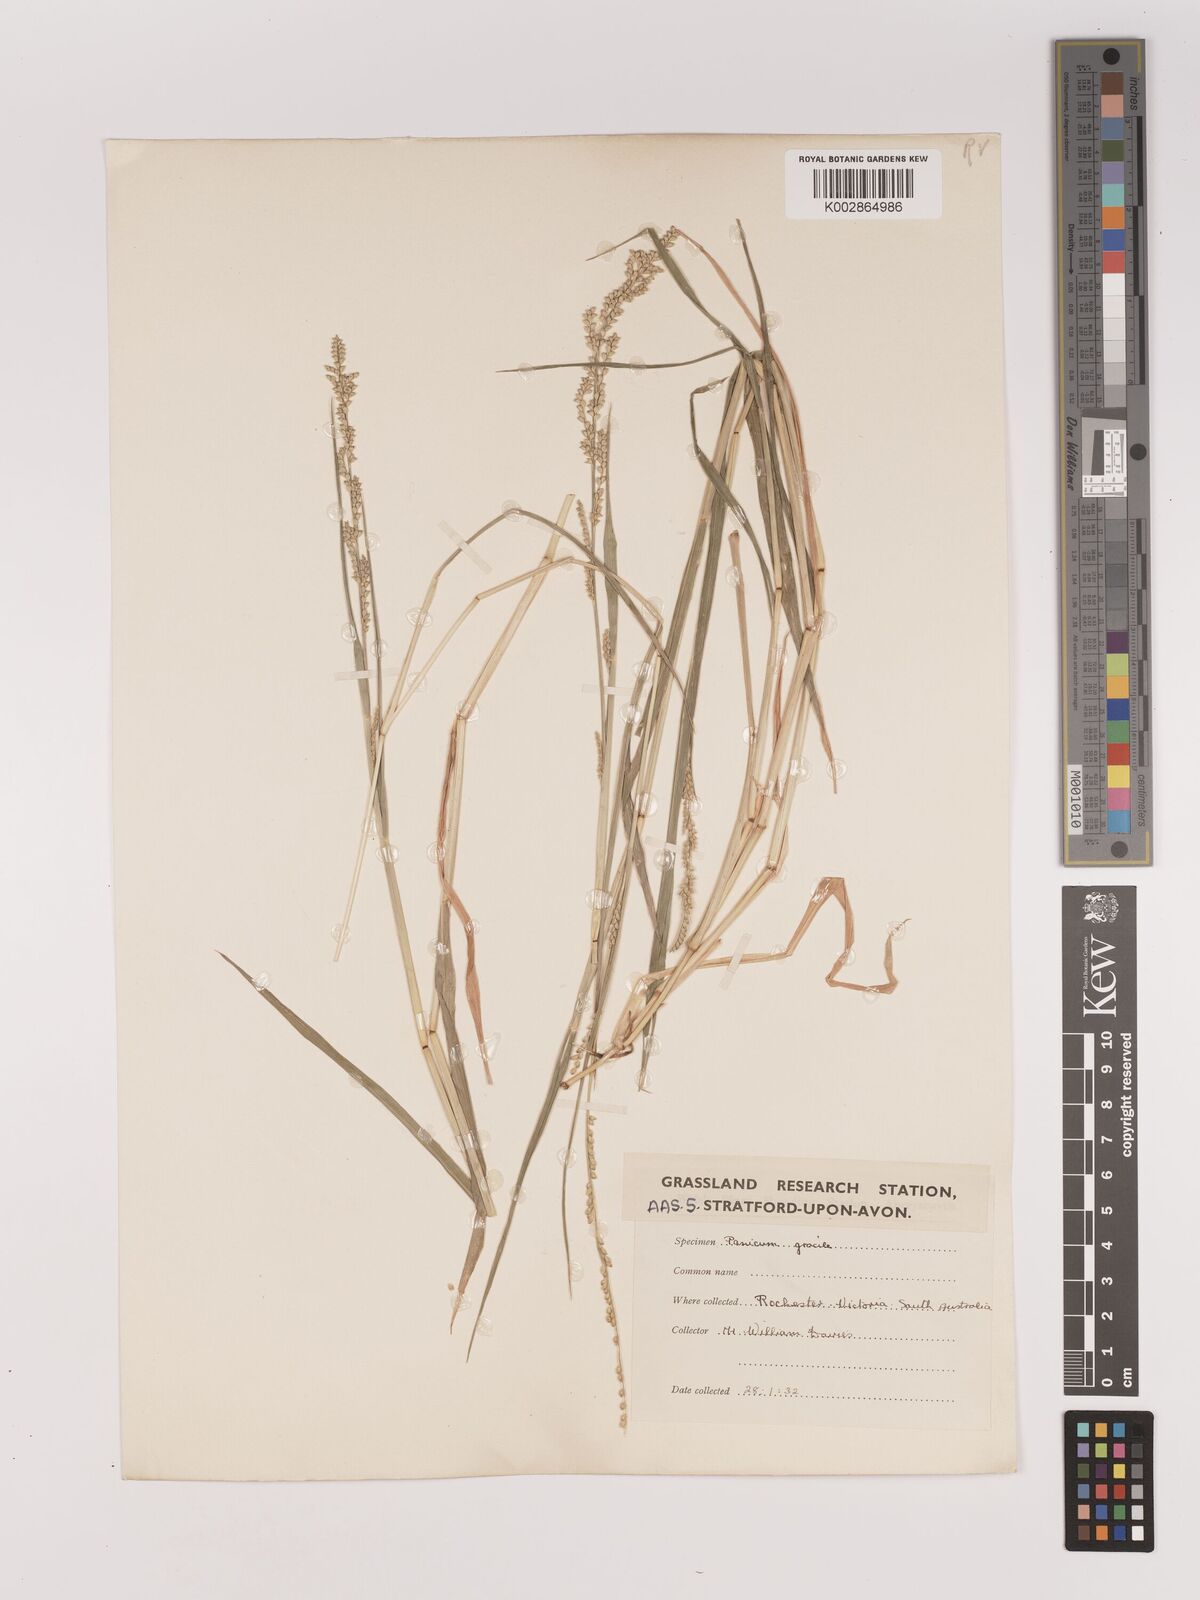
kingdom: Plantae
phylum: Tracheophyta
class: Liliopsida
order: Poales
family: Poaceae
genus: Setaria
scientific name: Setaria
